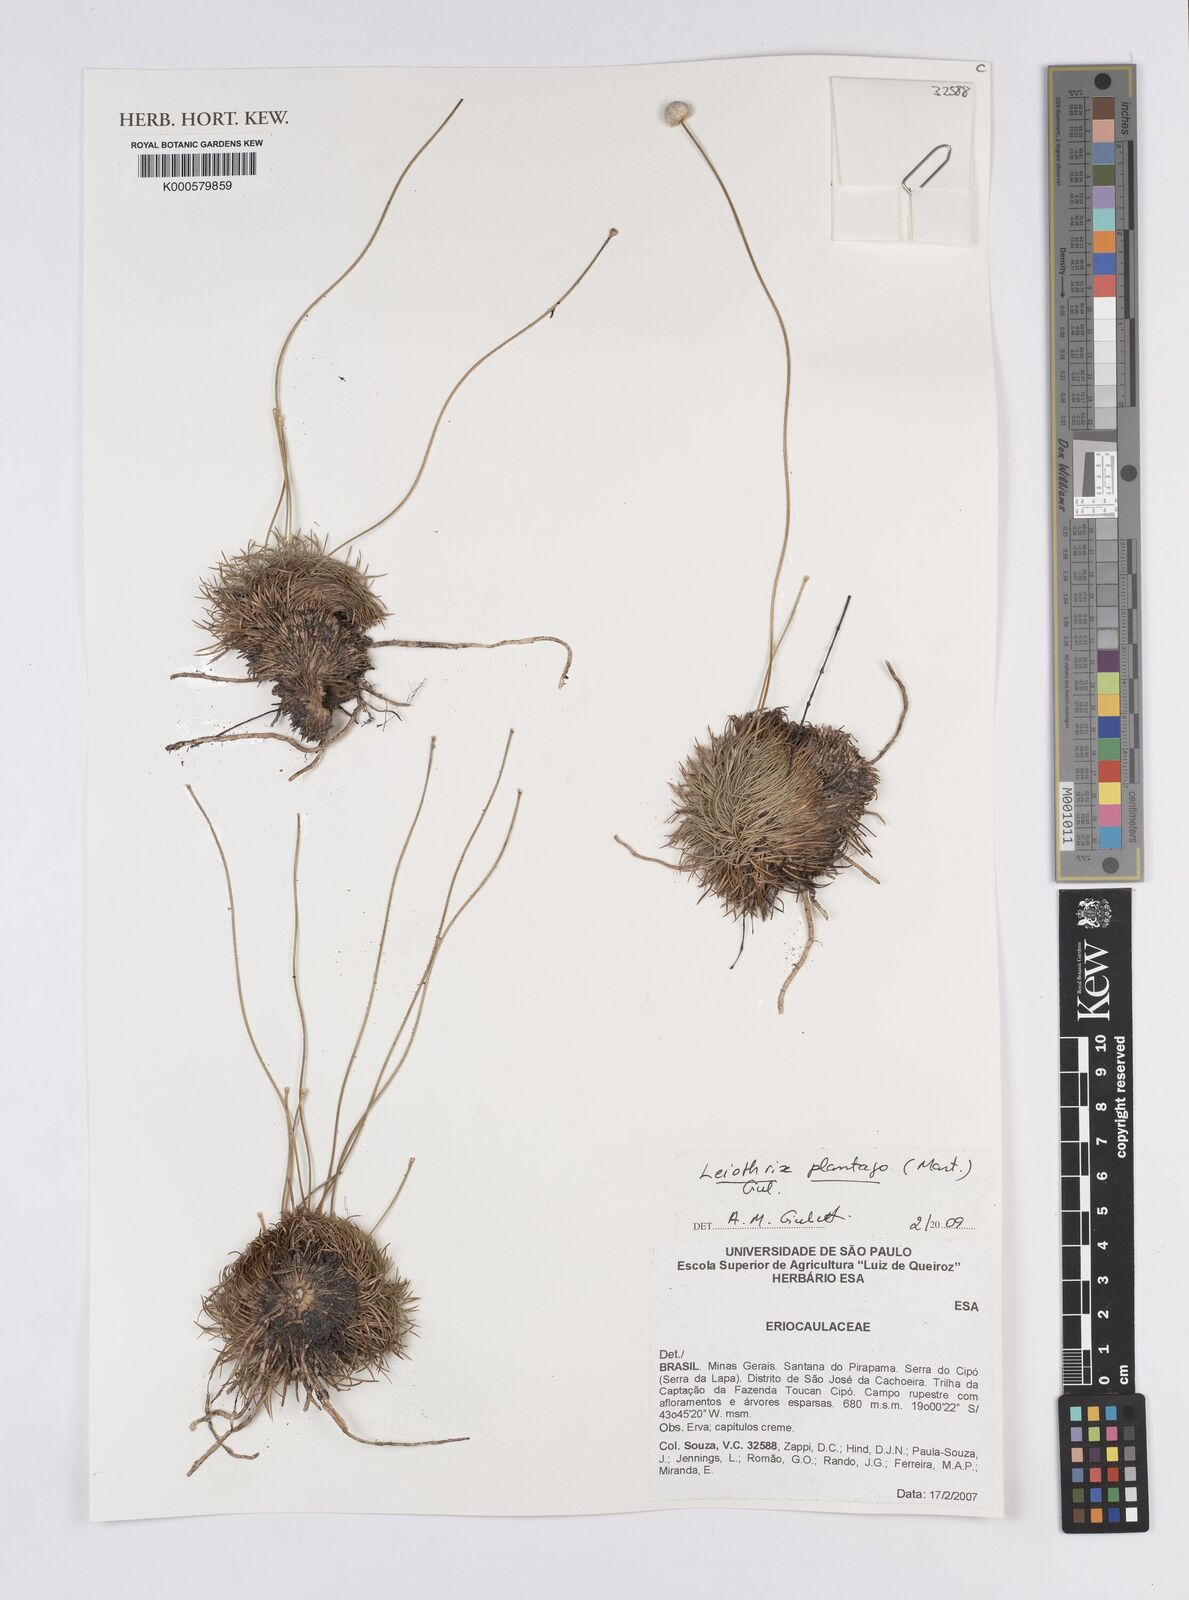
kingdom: Plantae
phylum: Tracheophyta
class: Liliopsida
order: Poales
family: Eriocaulaceae
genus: Leiothrix
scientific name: Leiothrix plantago
